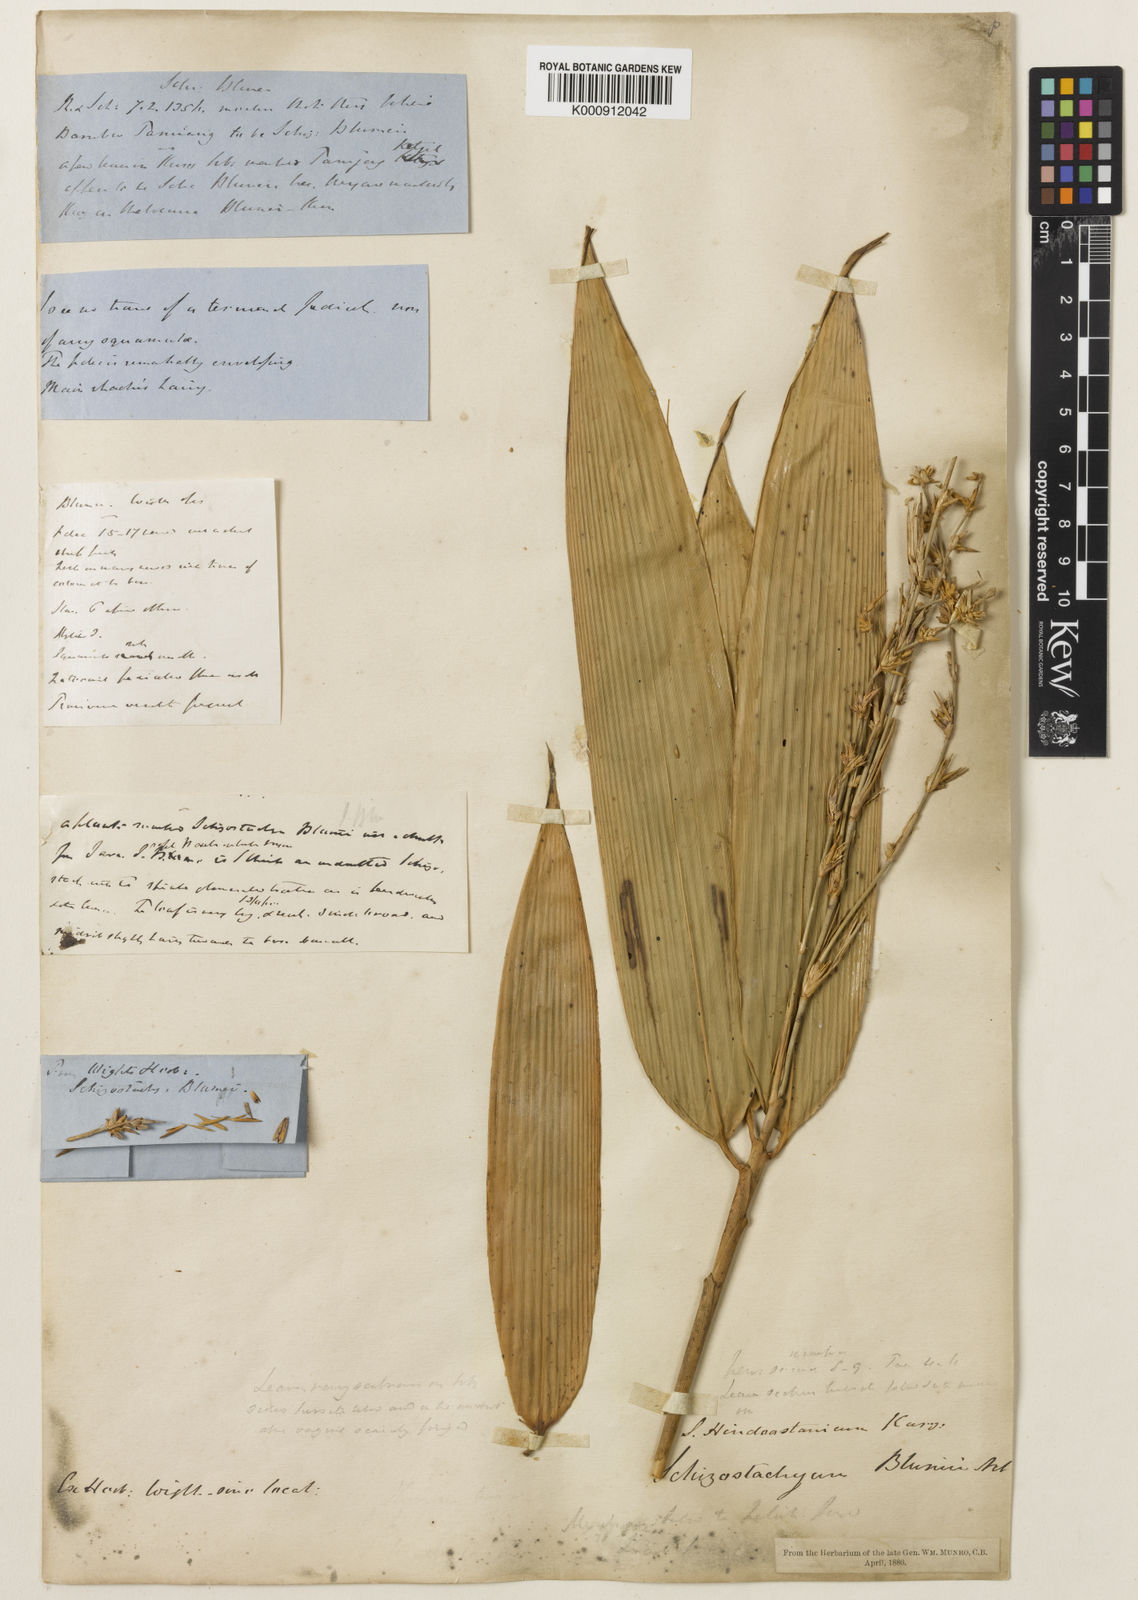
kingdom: Plantae
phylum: Tracheophyta
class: Liliopsida
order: Poales
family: Poaceae
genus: Pseudoxytenanthera
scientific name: Pseudoxytenanthera ritchiei
